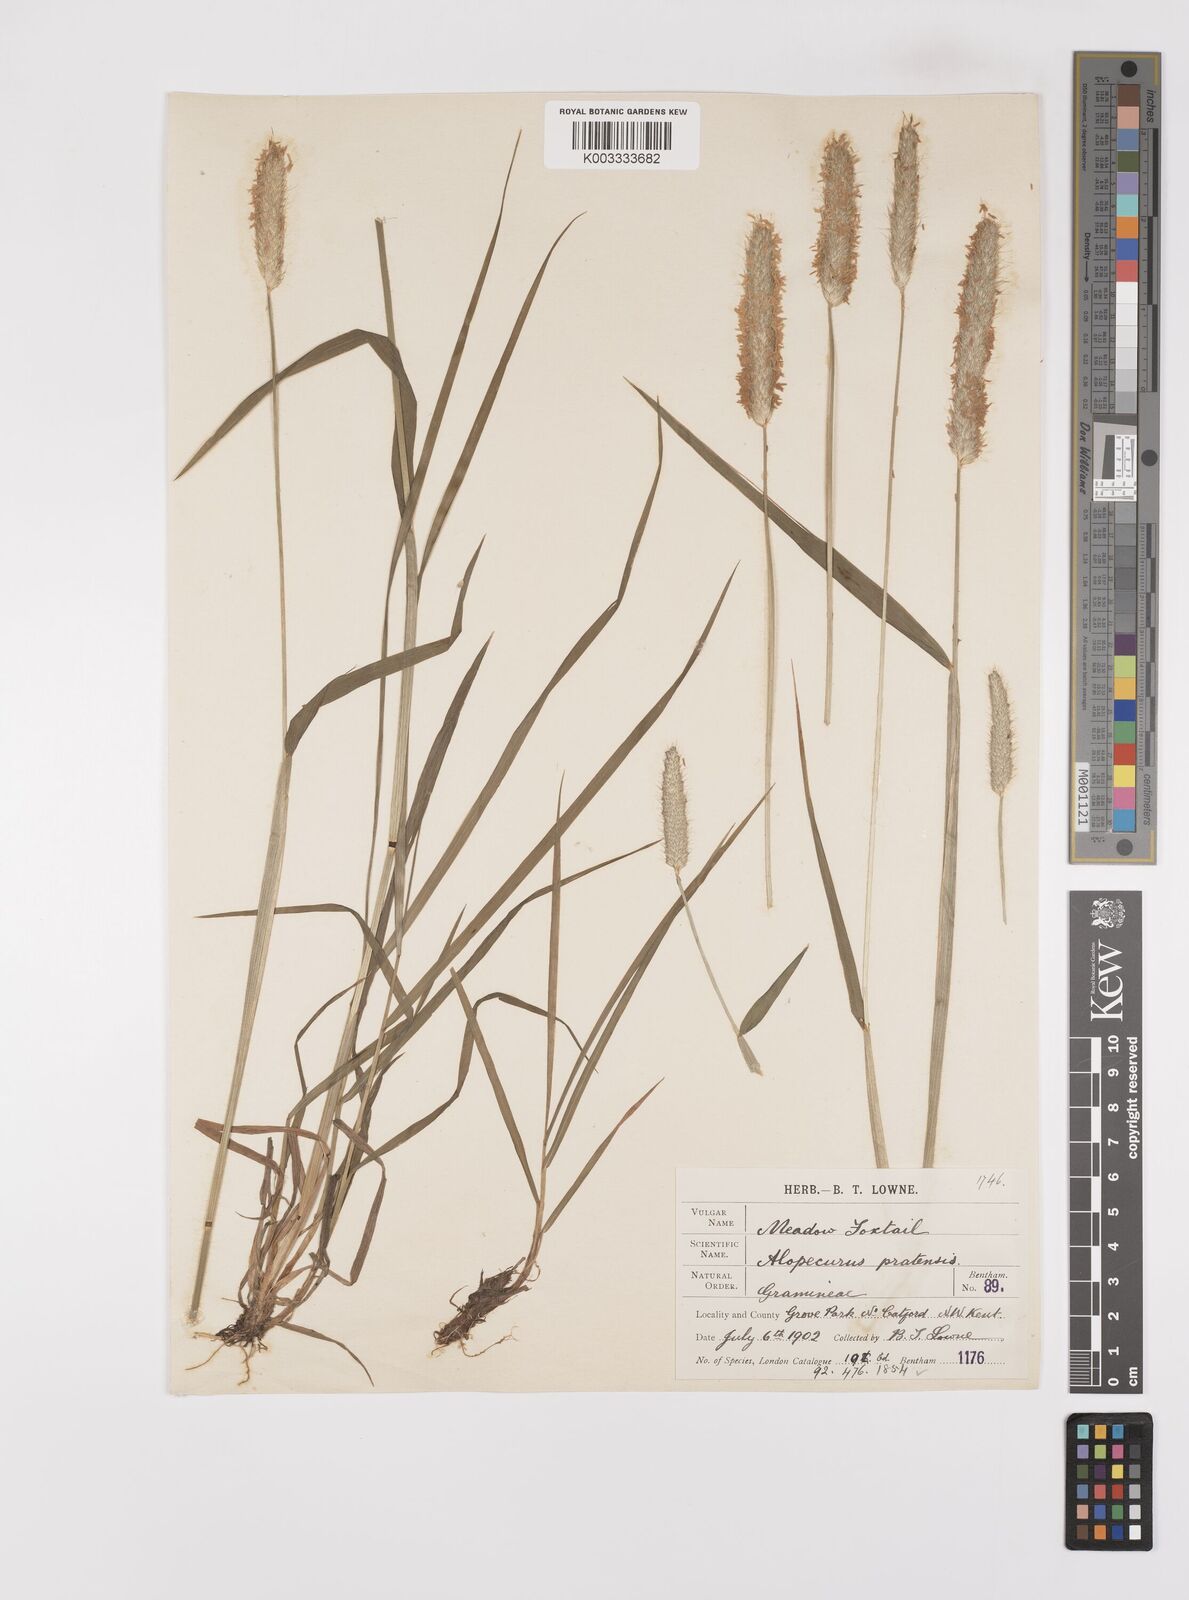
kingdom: Plantae
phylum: Tracheophyta
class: Liliopsida
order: Poales
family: Poaceae
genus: Alopecurus
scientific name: Alopecurus pratensis
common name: Meadow foxtail
